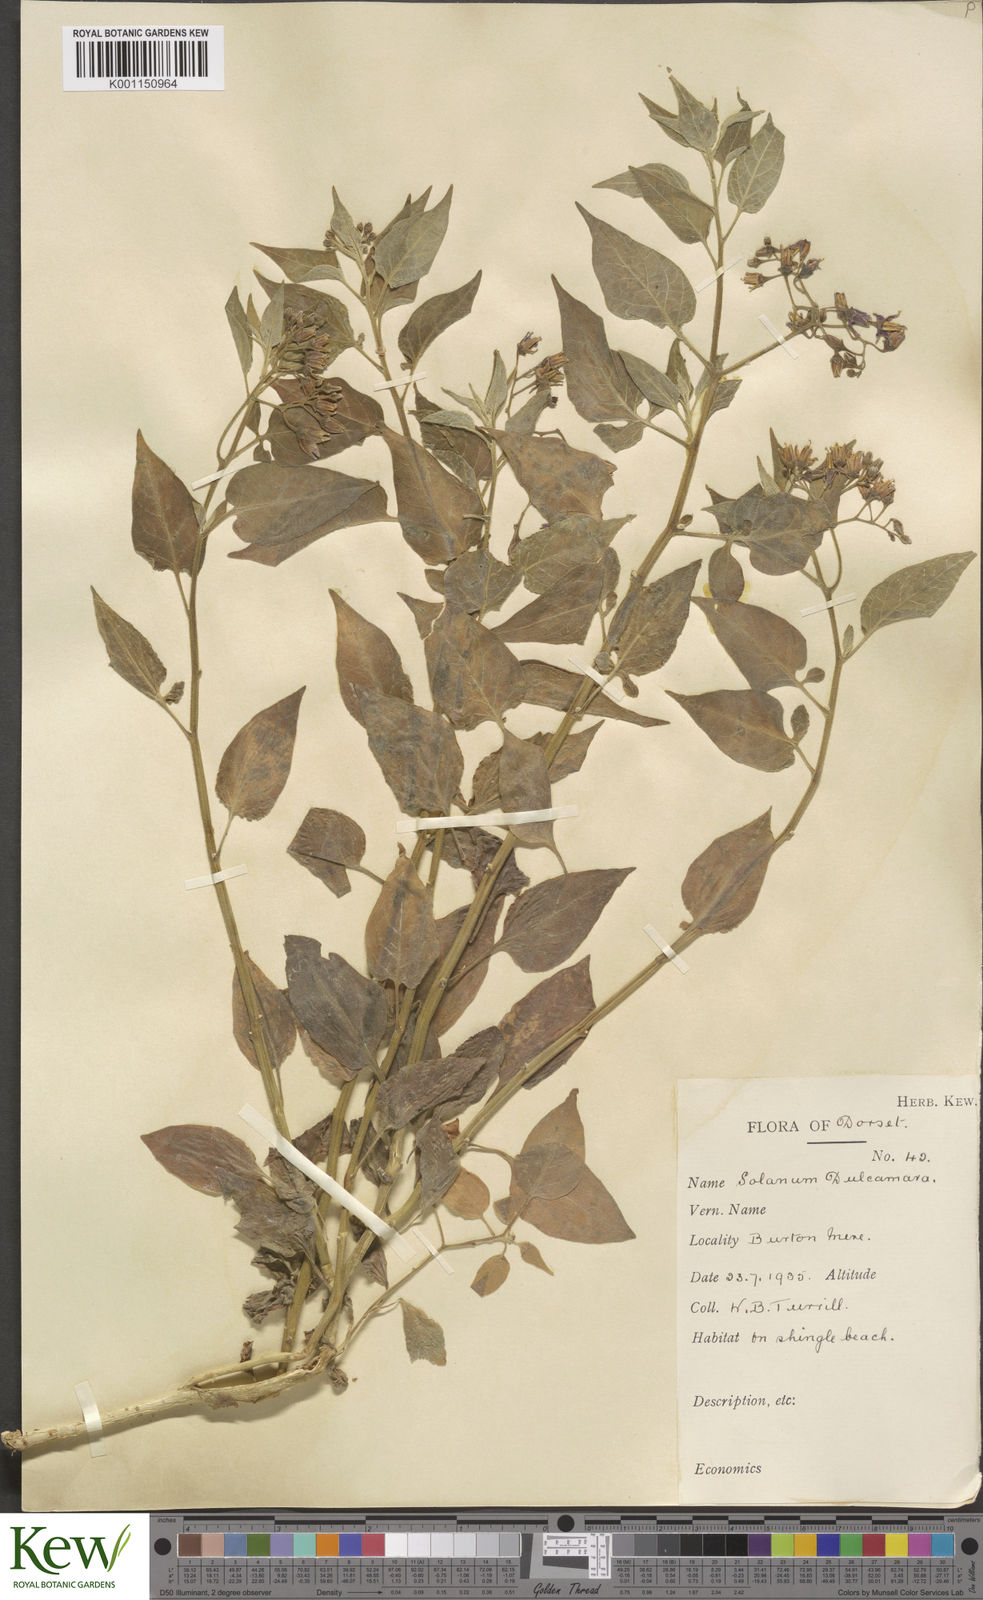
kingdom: Plantae
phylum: Tracheophyta
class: Magnoliopsida
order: Solanales
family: Solanaceae
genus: Solanum
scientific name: Solanum dulcamara
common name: Climbing nightshade
